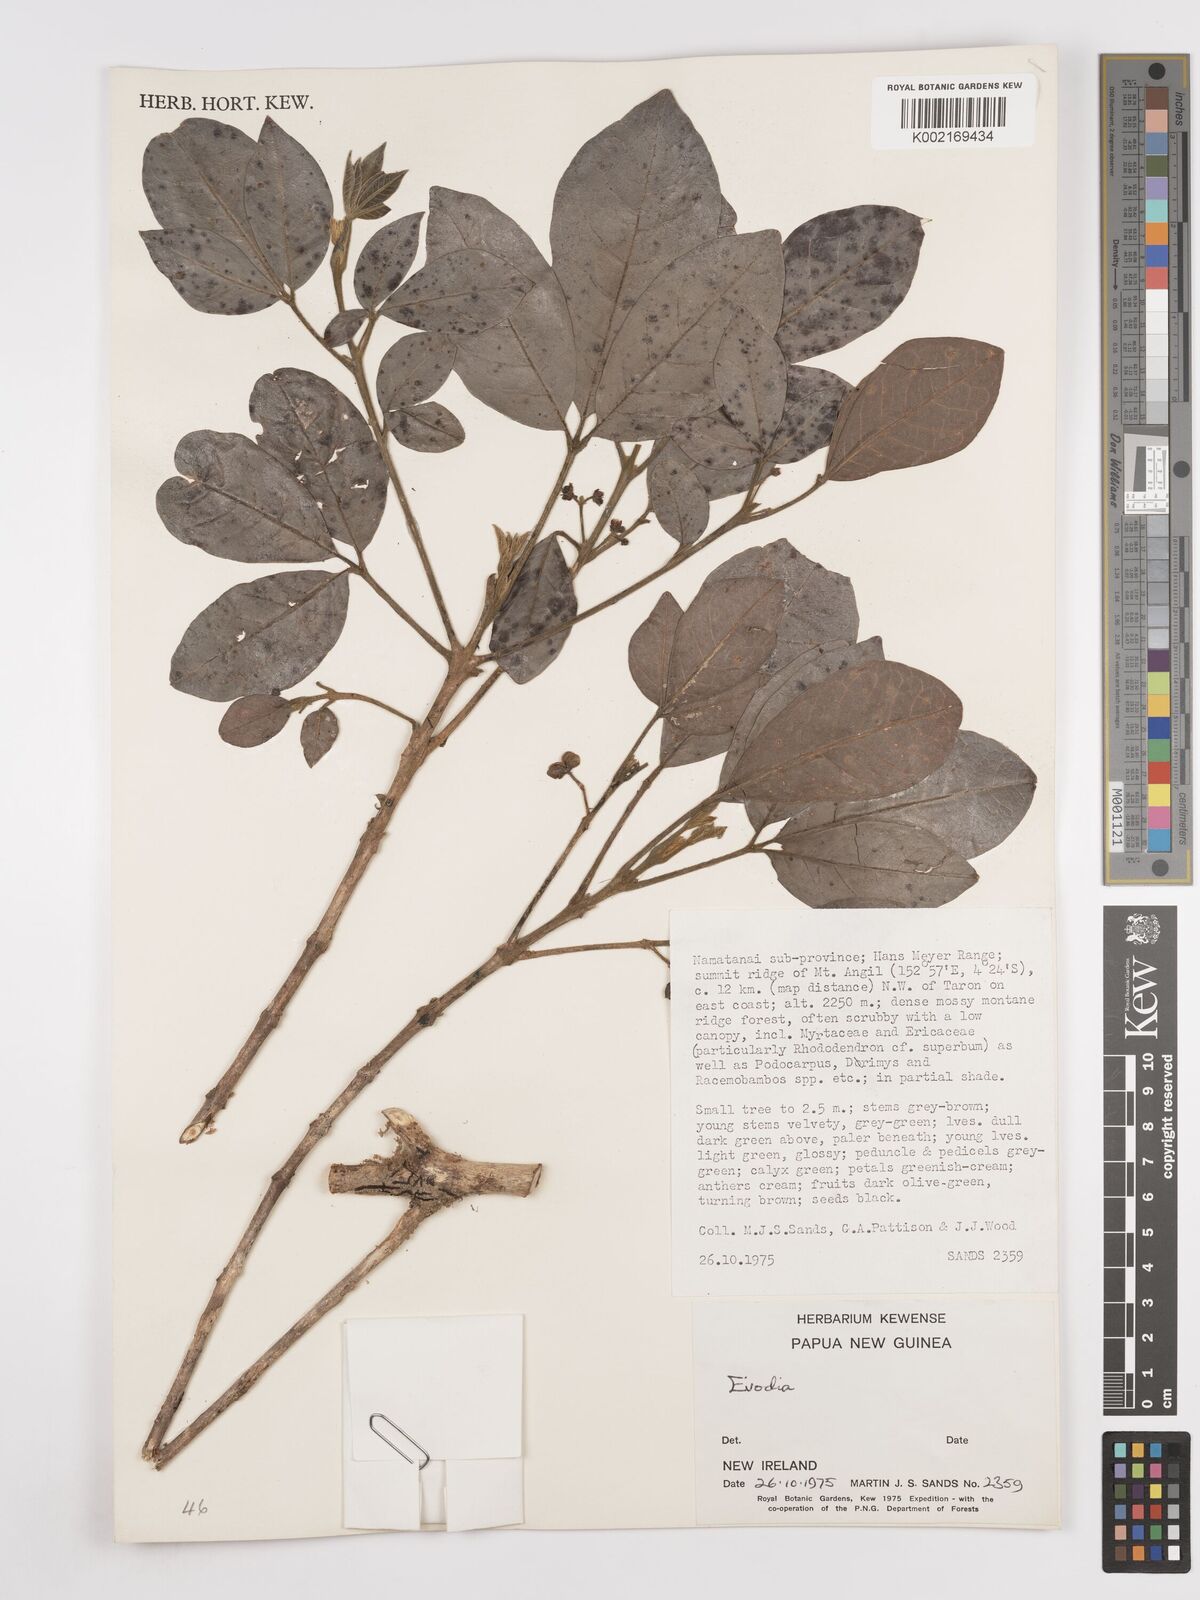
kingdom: Plantae
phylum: Tracheophyta
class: Magnoliopsida
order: Sapindales
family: Rutaceae
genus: Euodia
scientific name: Euodia
